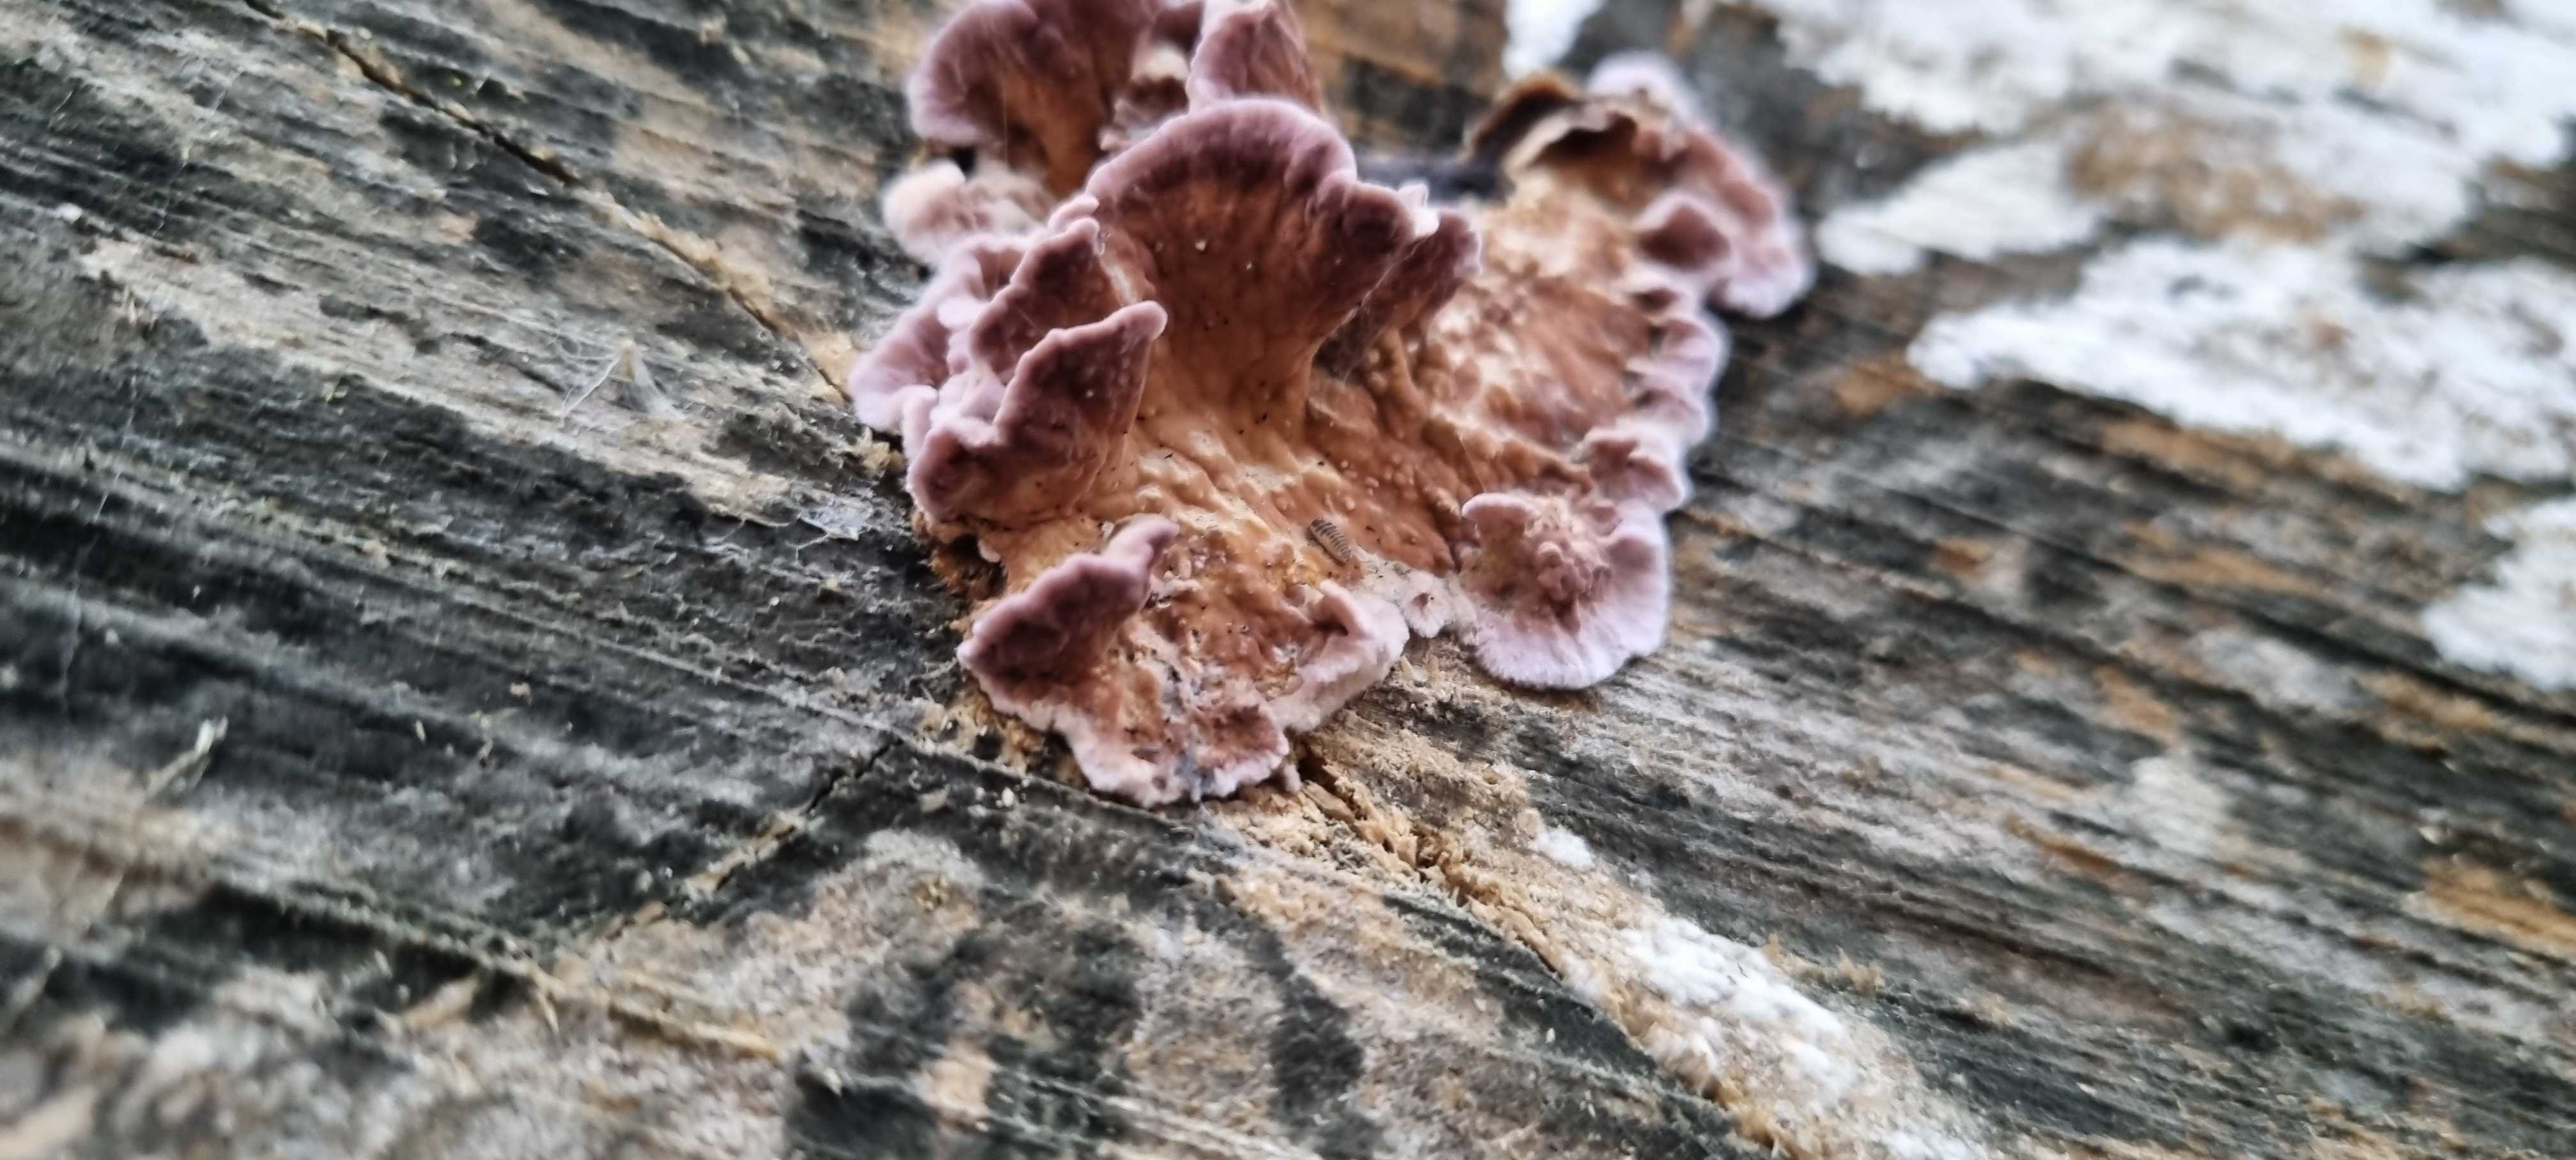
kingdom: Fungi
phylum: Basidiomycota
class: Agaricomycetes
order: Agaricales
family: Cyphellaceae
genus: Chondrostereum
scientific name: Chondrostereum purpureum
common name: purpurlædersvamp
